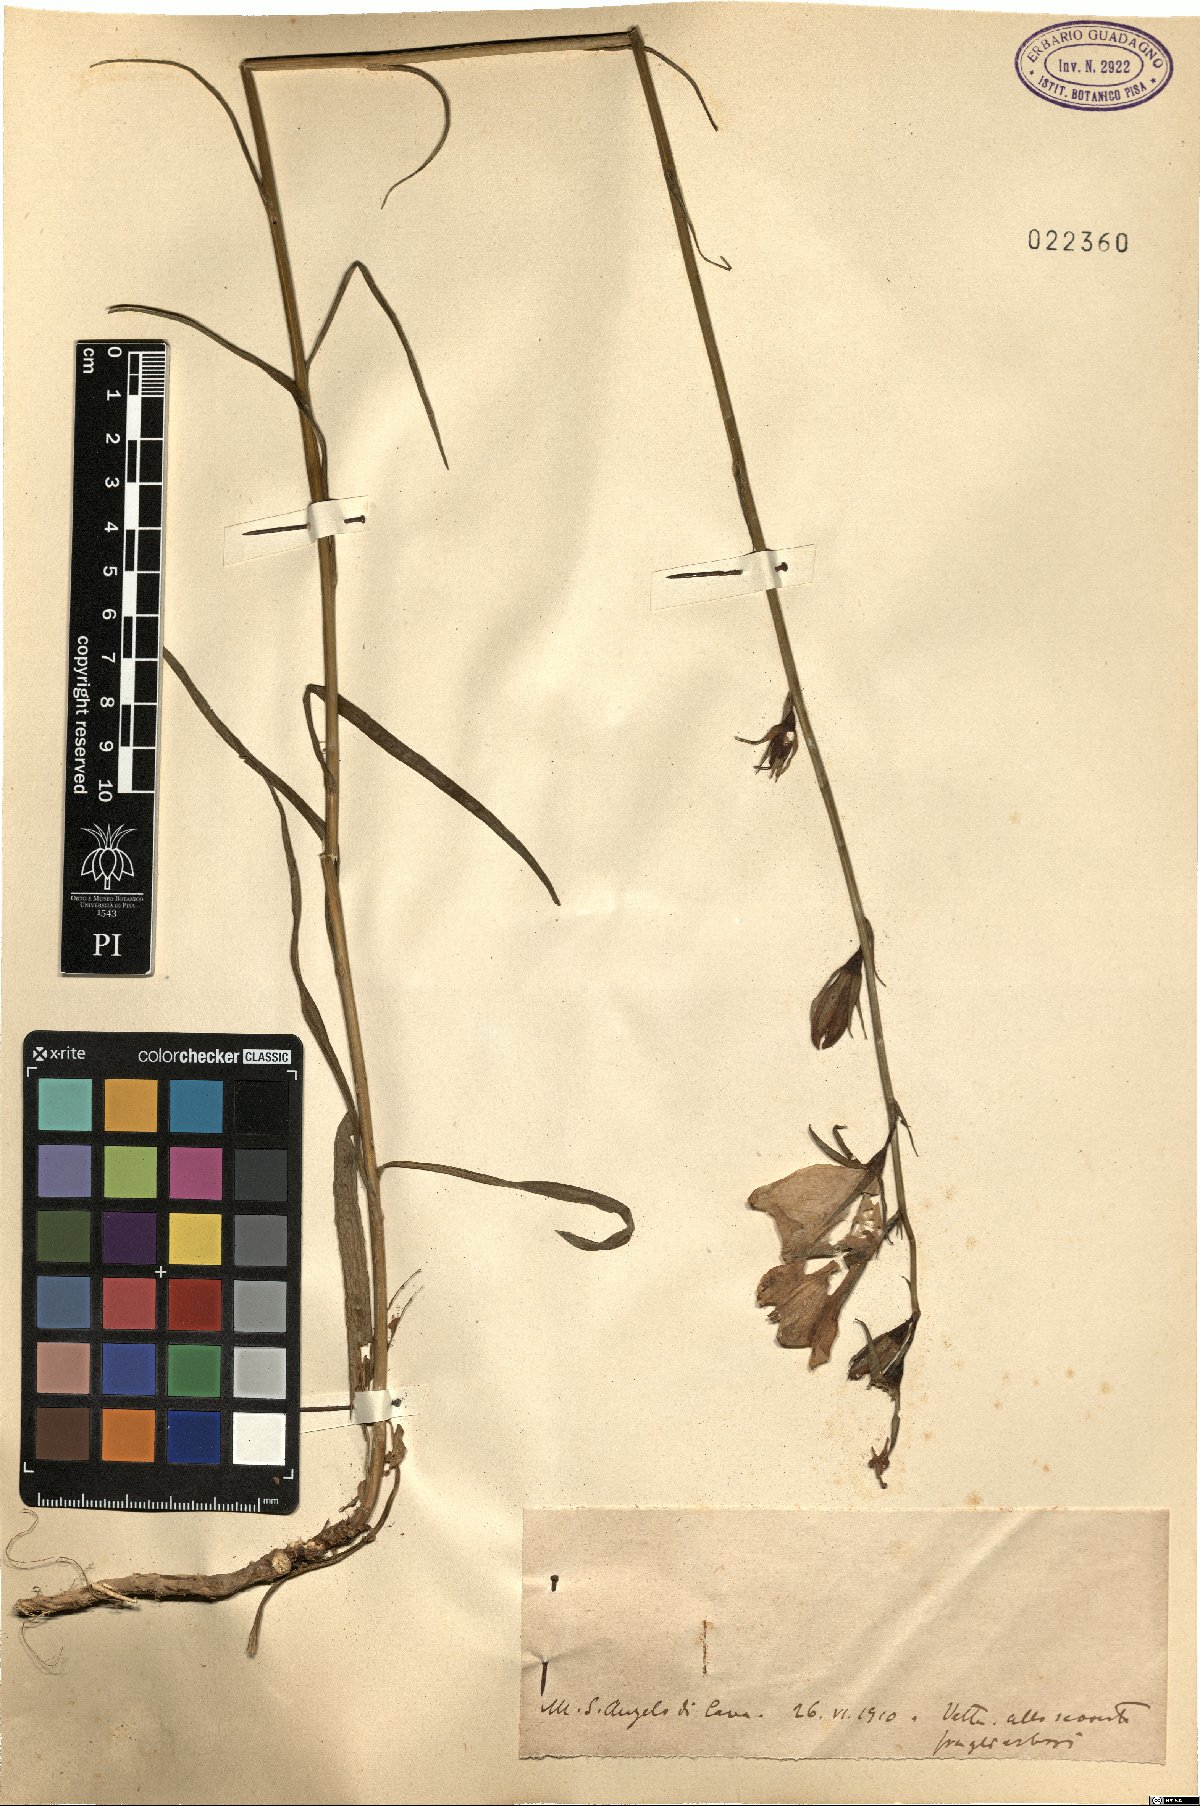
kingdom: Plantae
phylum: Tracheophyta
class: Magnoliopsida
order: Asterales
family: Campanulaceae
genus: Campanula
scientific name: Campanula
